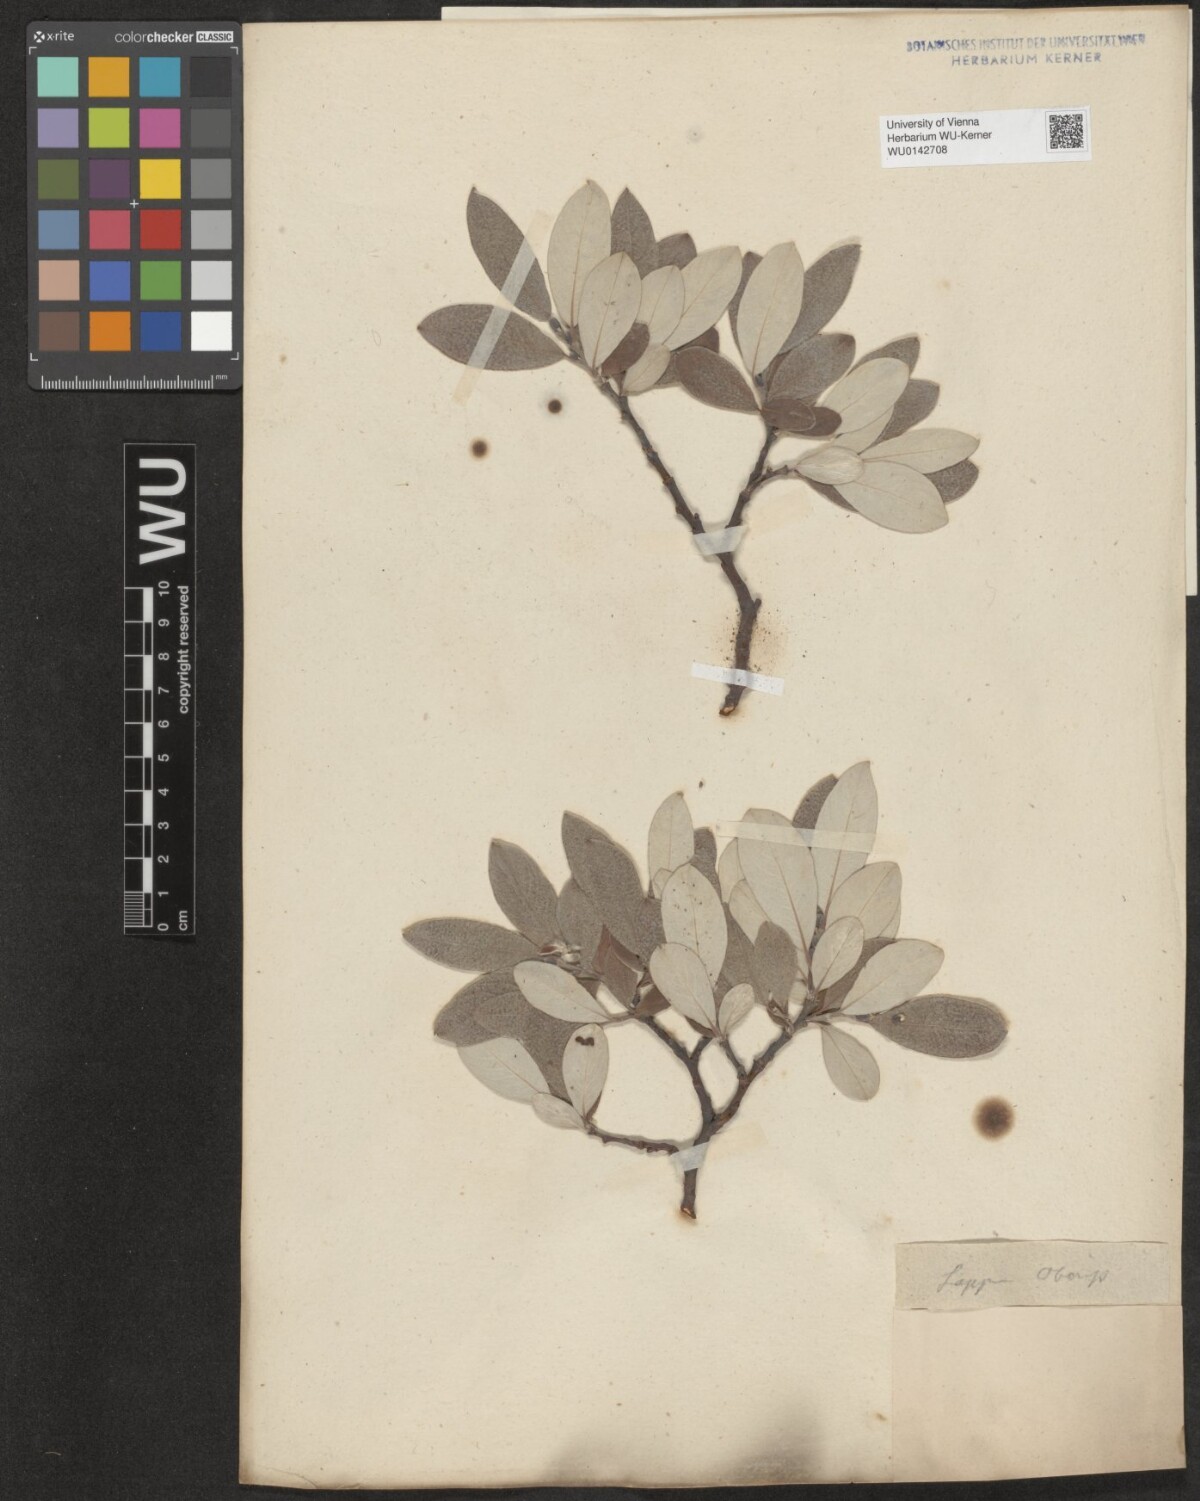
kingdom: Plantae
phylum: Tracheophyta
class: Magnoliopsida
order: Malpighiales
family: Salicaceae
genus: Salix
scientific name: Salix helvetica
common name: Swiss willow
